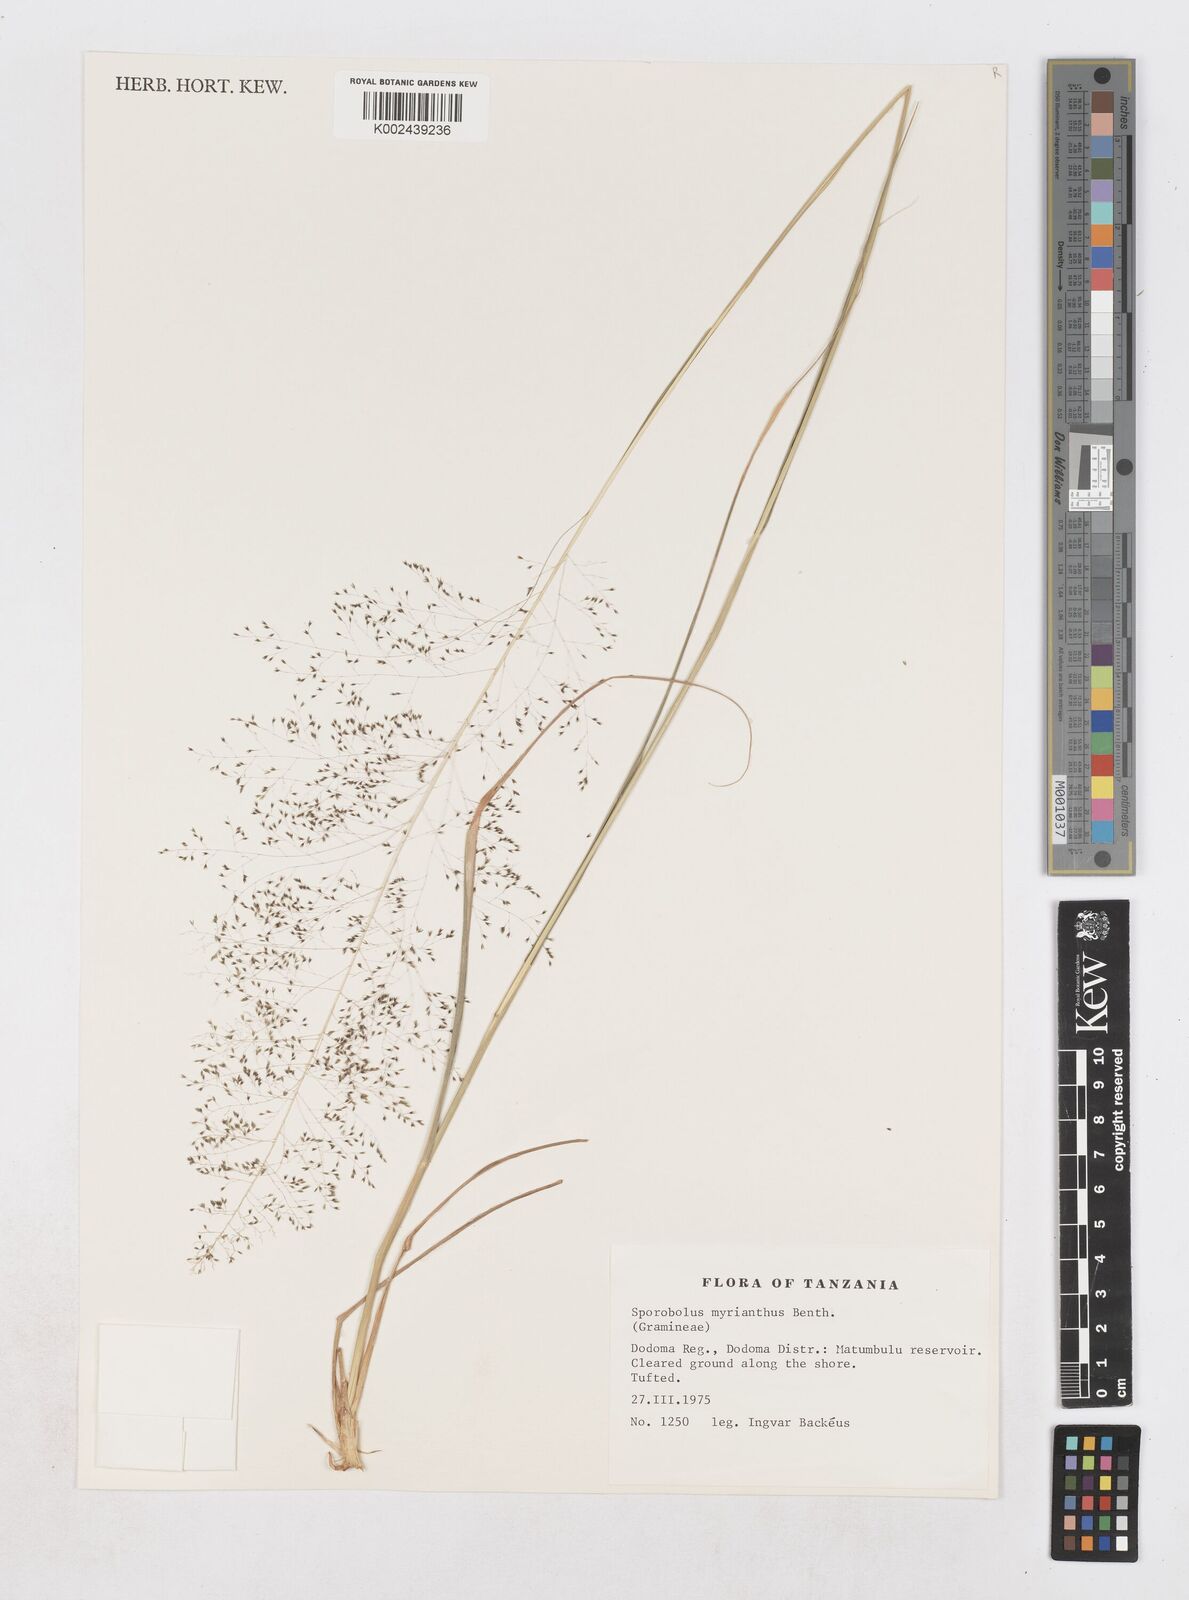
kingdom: Plantae
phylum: Tracheophyta
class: Liliopsida
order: Poales
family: Poaceae
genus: Sporobolus
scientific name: Sporobolus myrianthus
